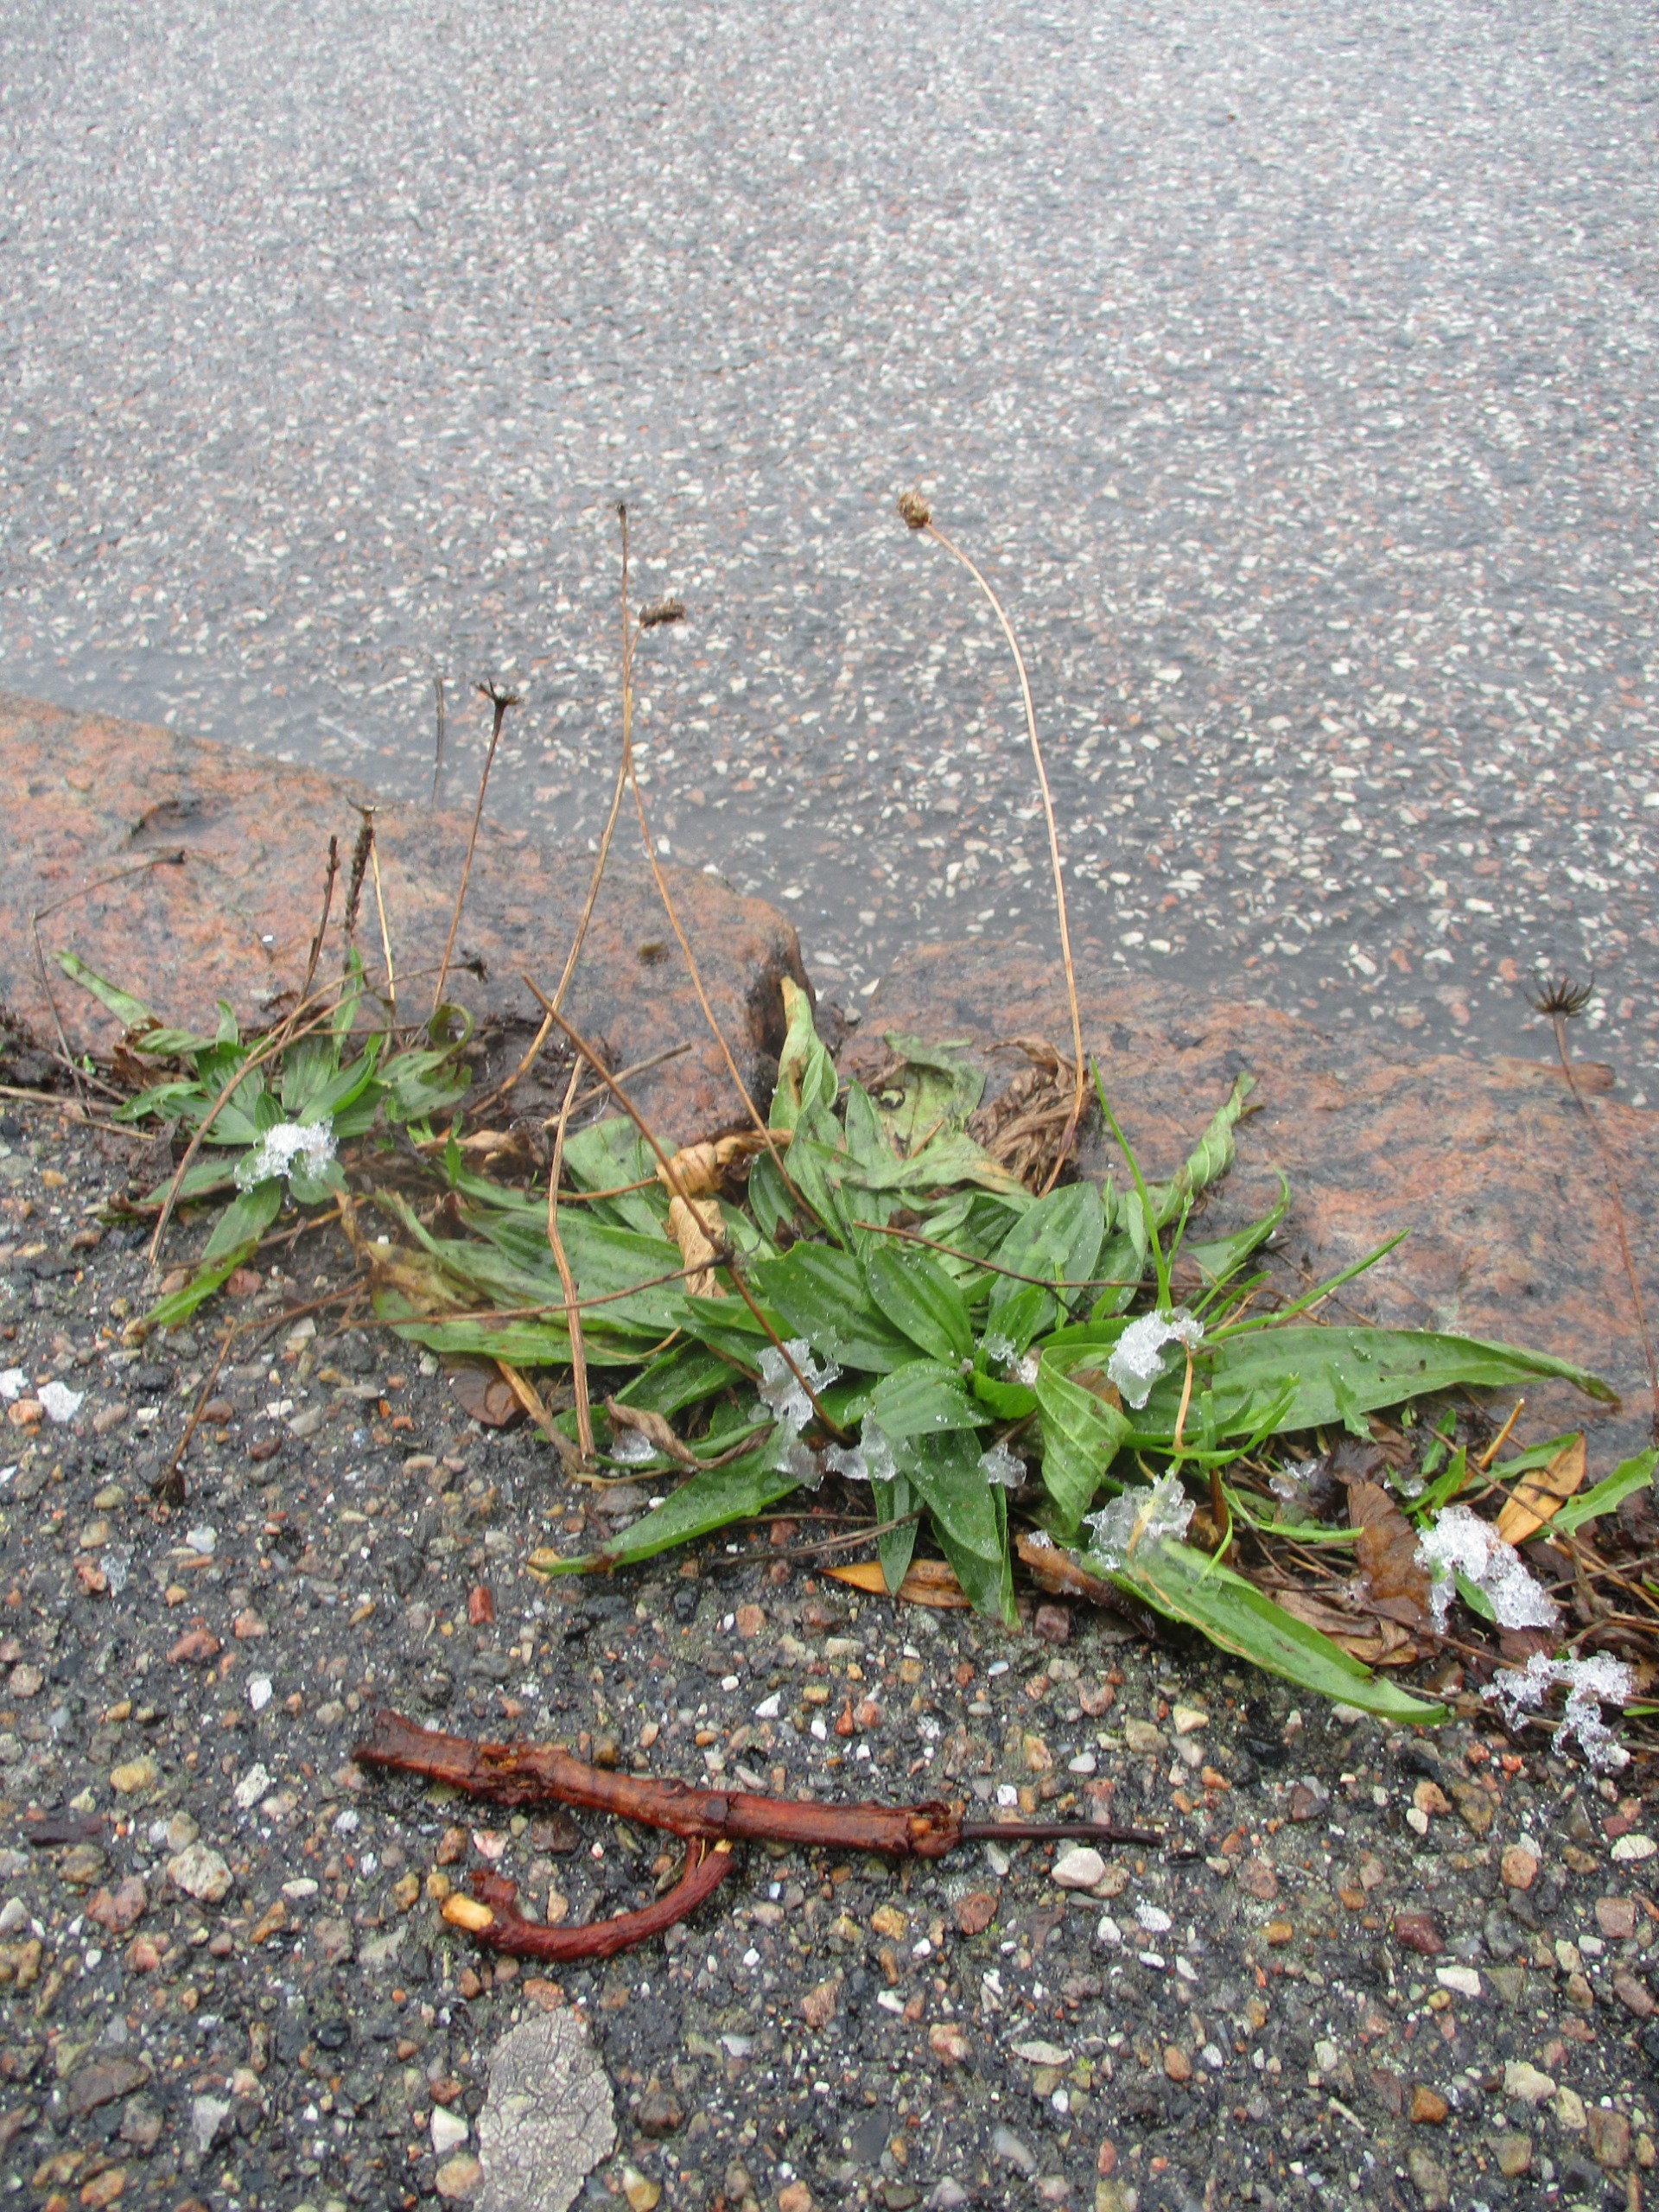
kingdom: Plantae
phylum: Tracheophyta
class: Magnoliopsida
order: Lamiales
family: Plantaginaceae
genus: Plantago
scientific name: Plantago lanceolata
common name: Lancet-vejbred
